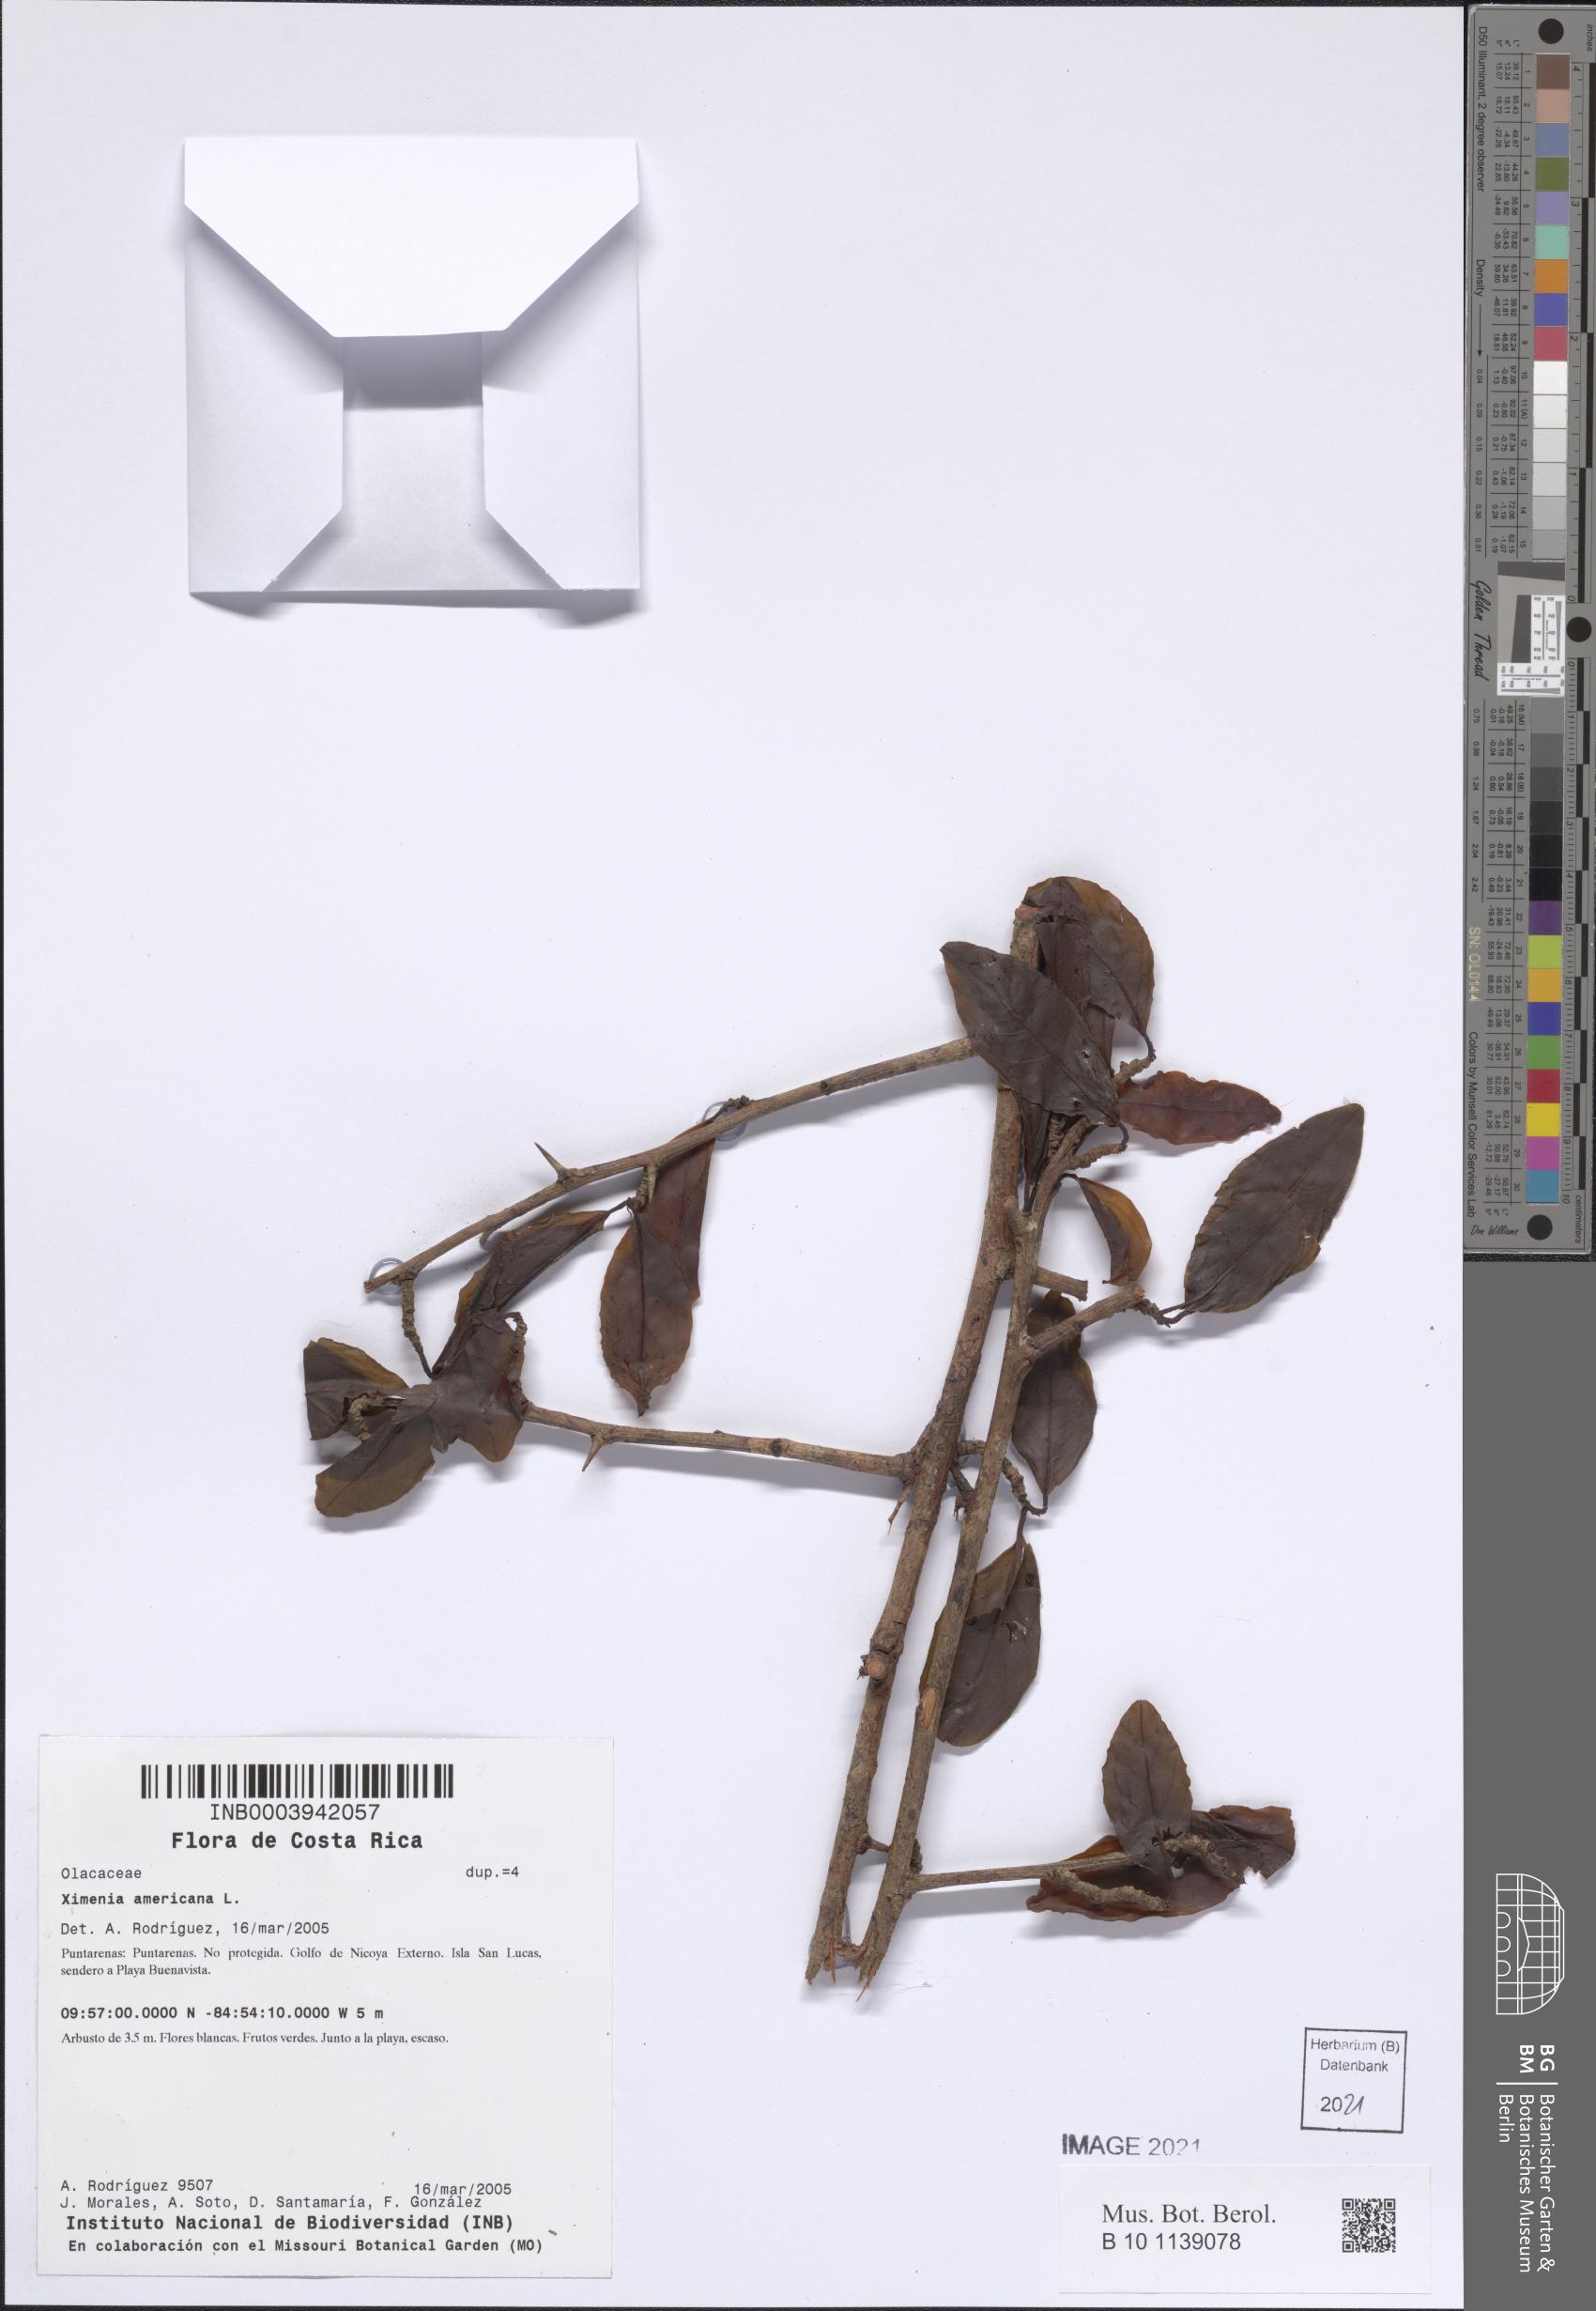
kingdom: Plantae
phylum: Tracheophyta
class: Magnoliopsida
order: Santalales
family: Ximeniaceae
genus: Ximenia
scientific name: Ximenia americana
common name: Tallowwood
